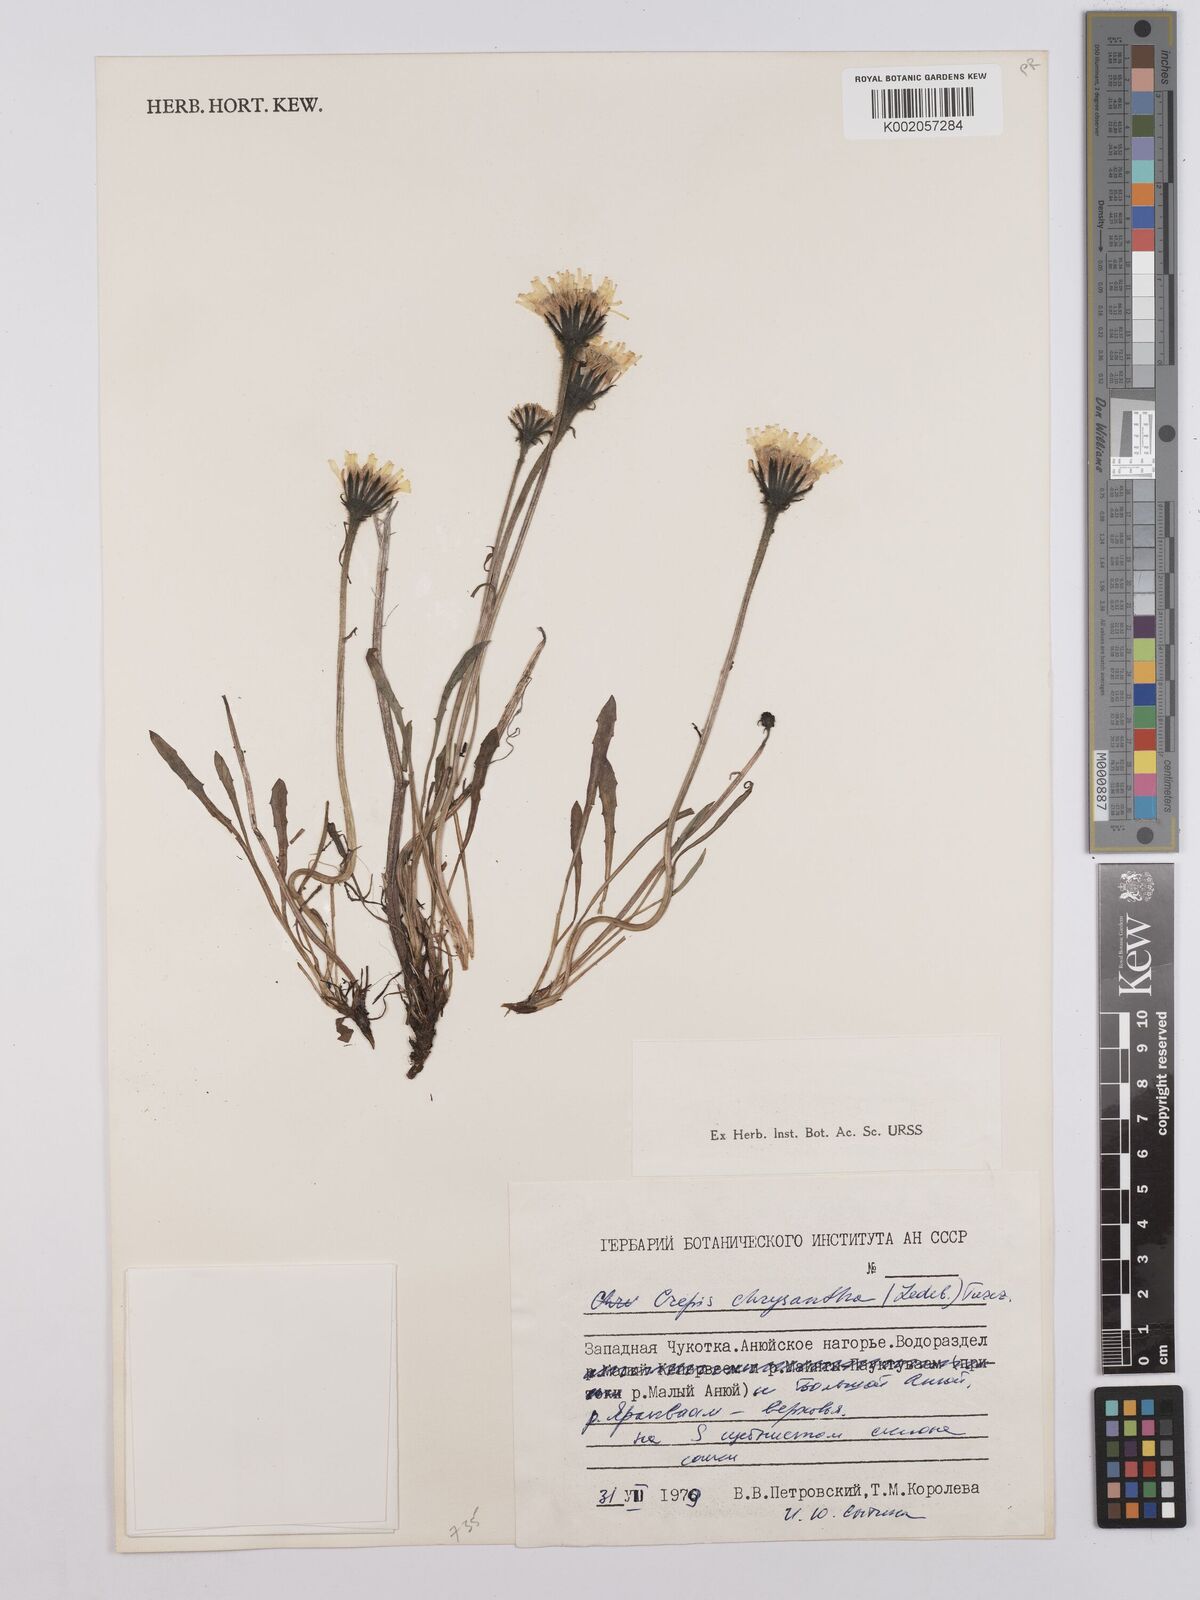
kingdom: Plantae
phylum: Tracheophyta
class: Magnoliopsida
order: Asterales
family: Asteraceae
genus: Crepis
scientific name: Crepis chrysantha
